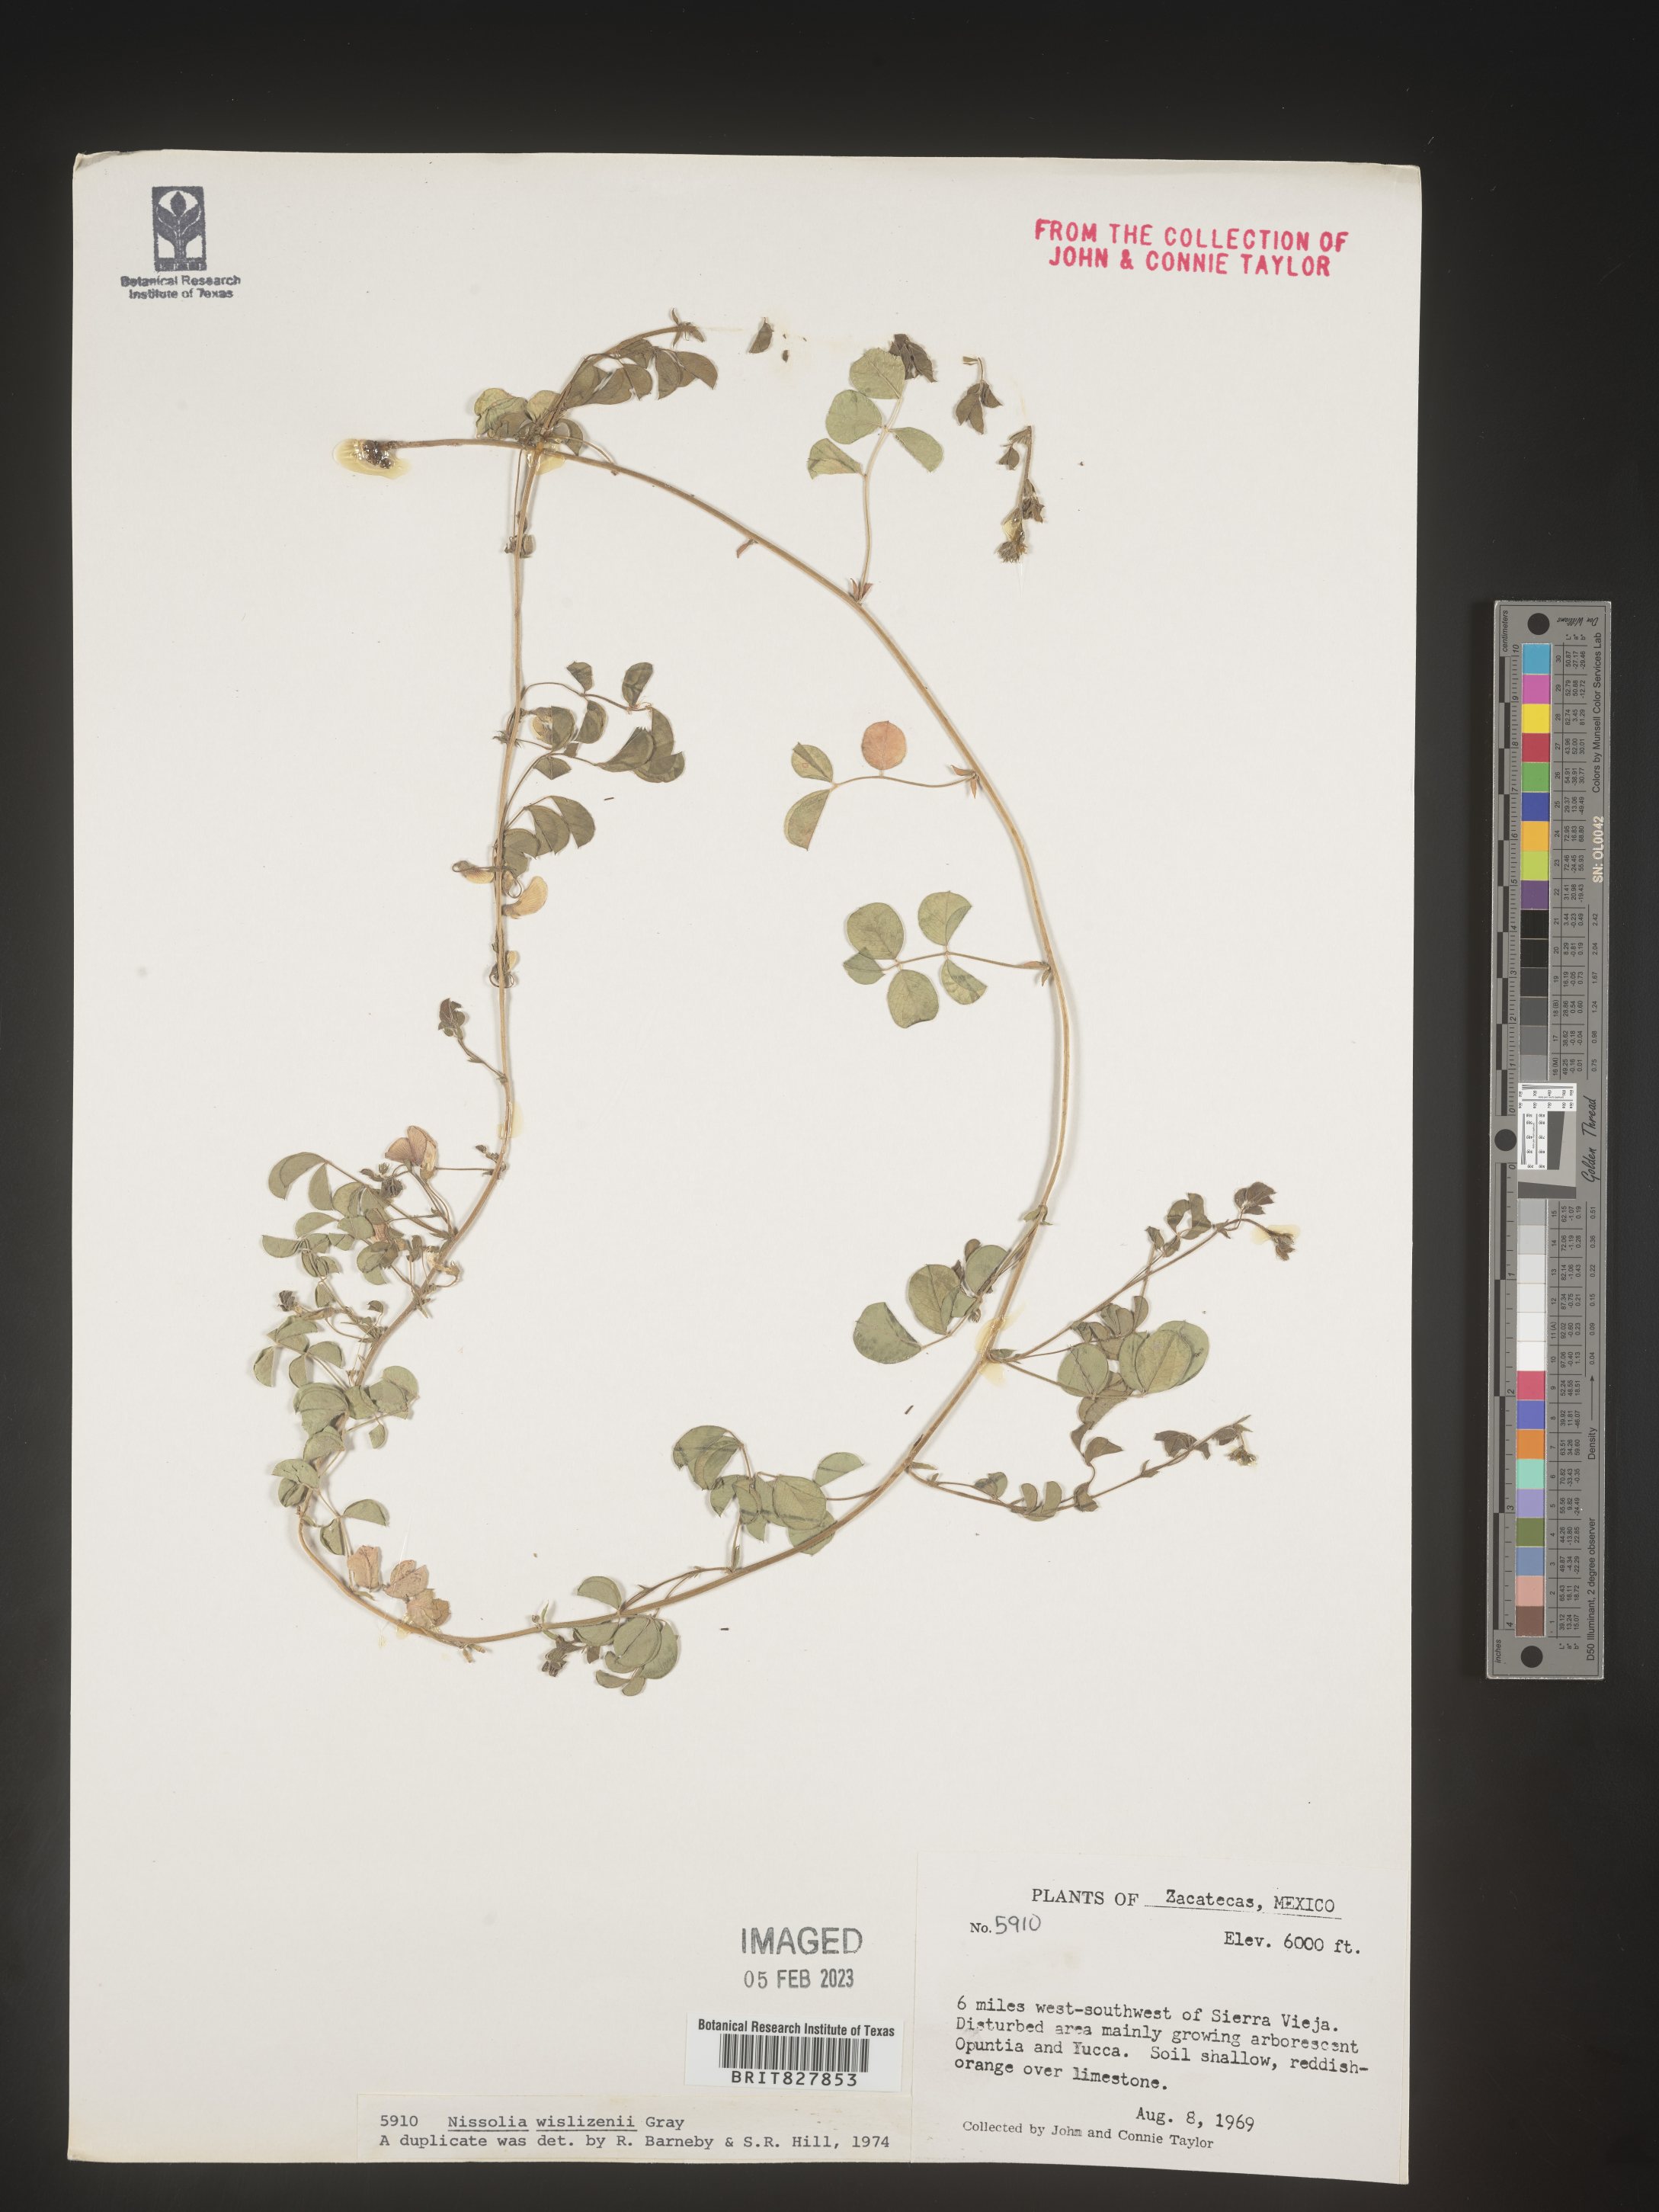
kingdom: Plantae
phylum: Tracheophyta
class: Magnoliopsida
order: Fabales
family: Fabaceae
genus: Nissolia
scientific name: Nissolia
